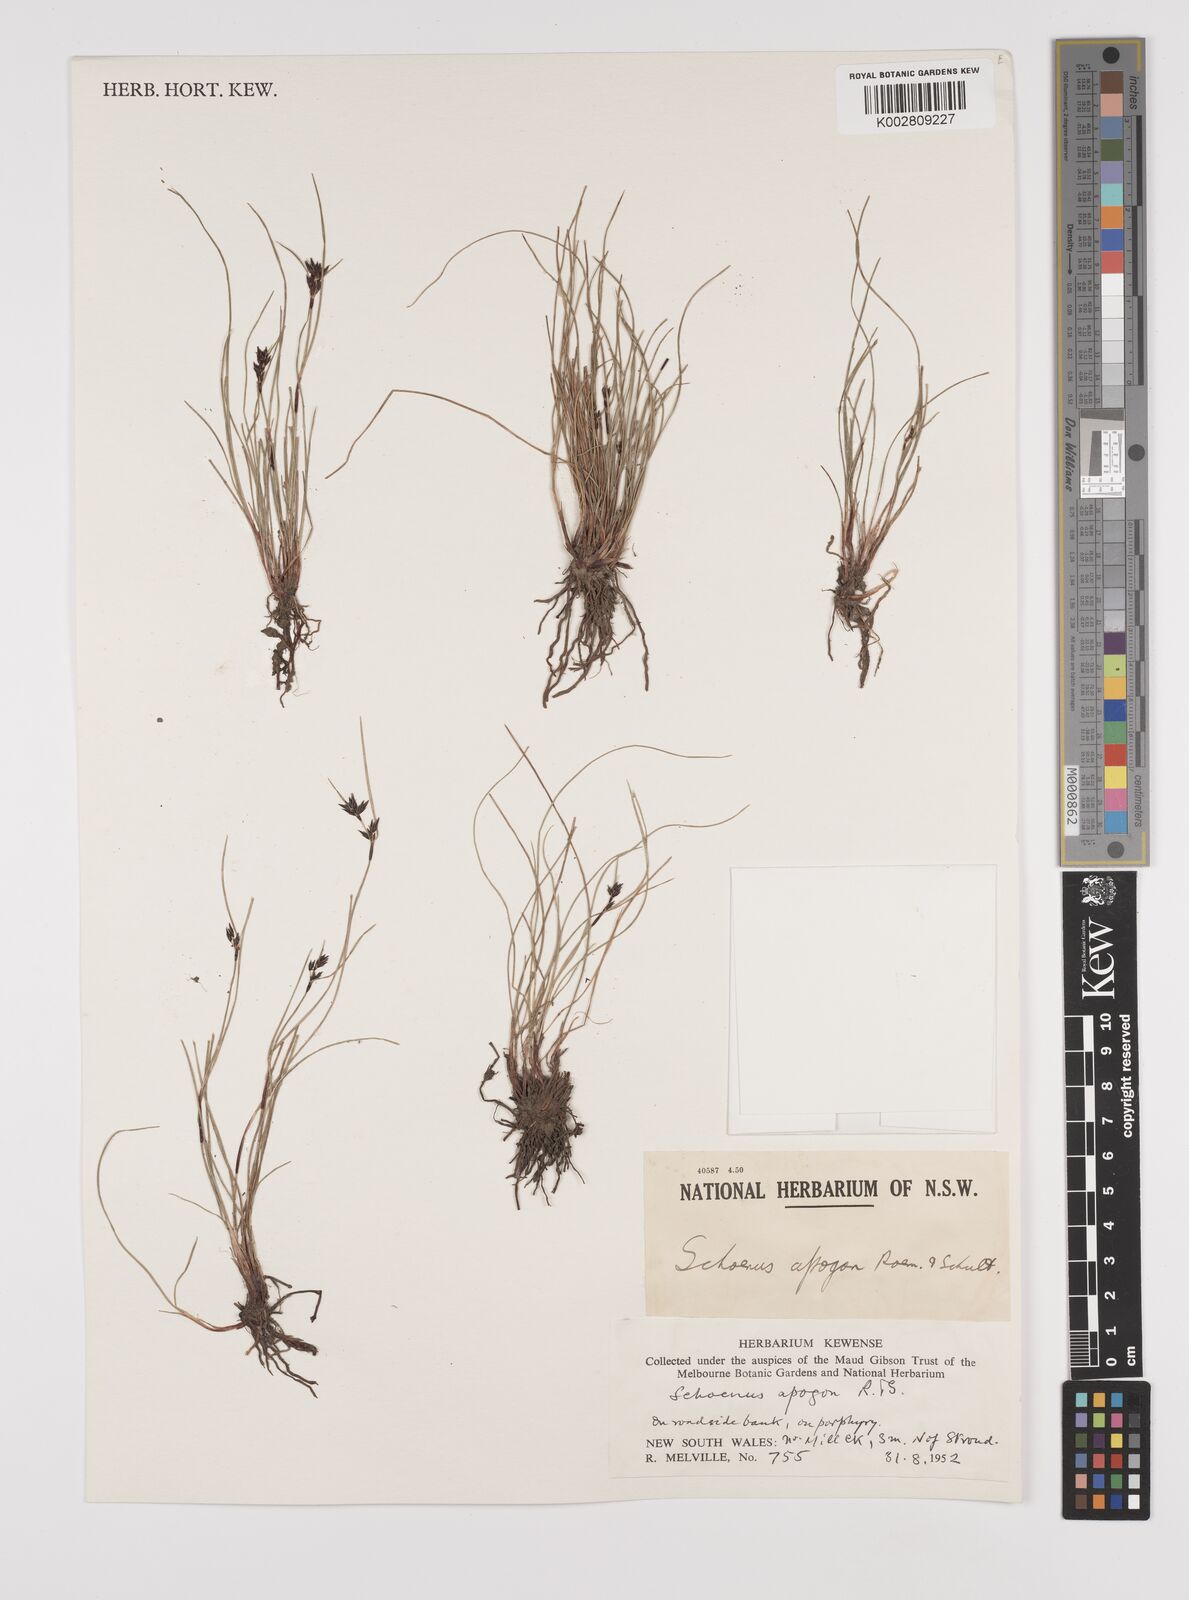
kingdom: Plantae
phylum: Tracheophyta
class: Liliopsida
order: Poales
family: Cyperaceae
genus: Schoenus
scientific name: Schoenus apogon
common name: Smooth bogrush
